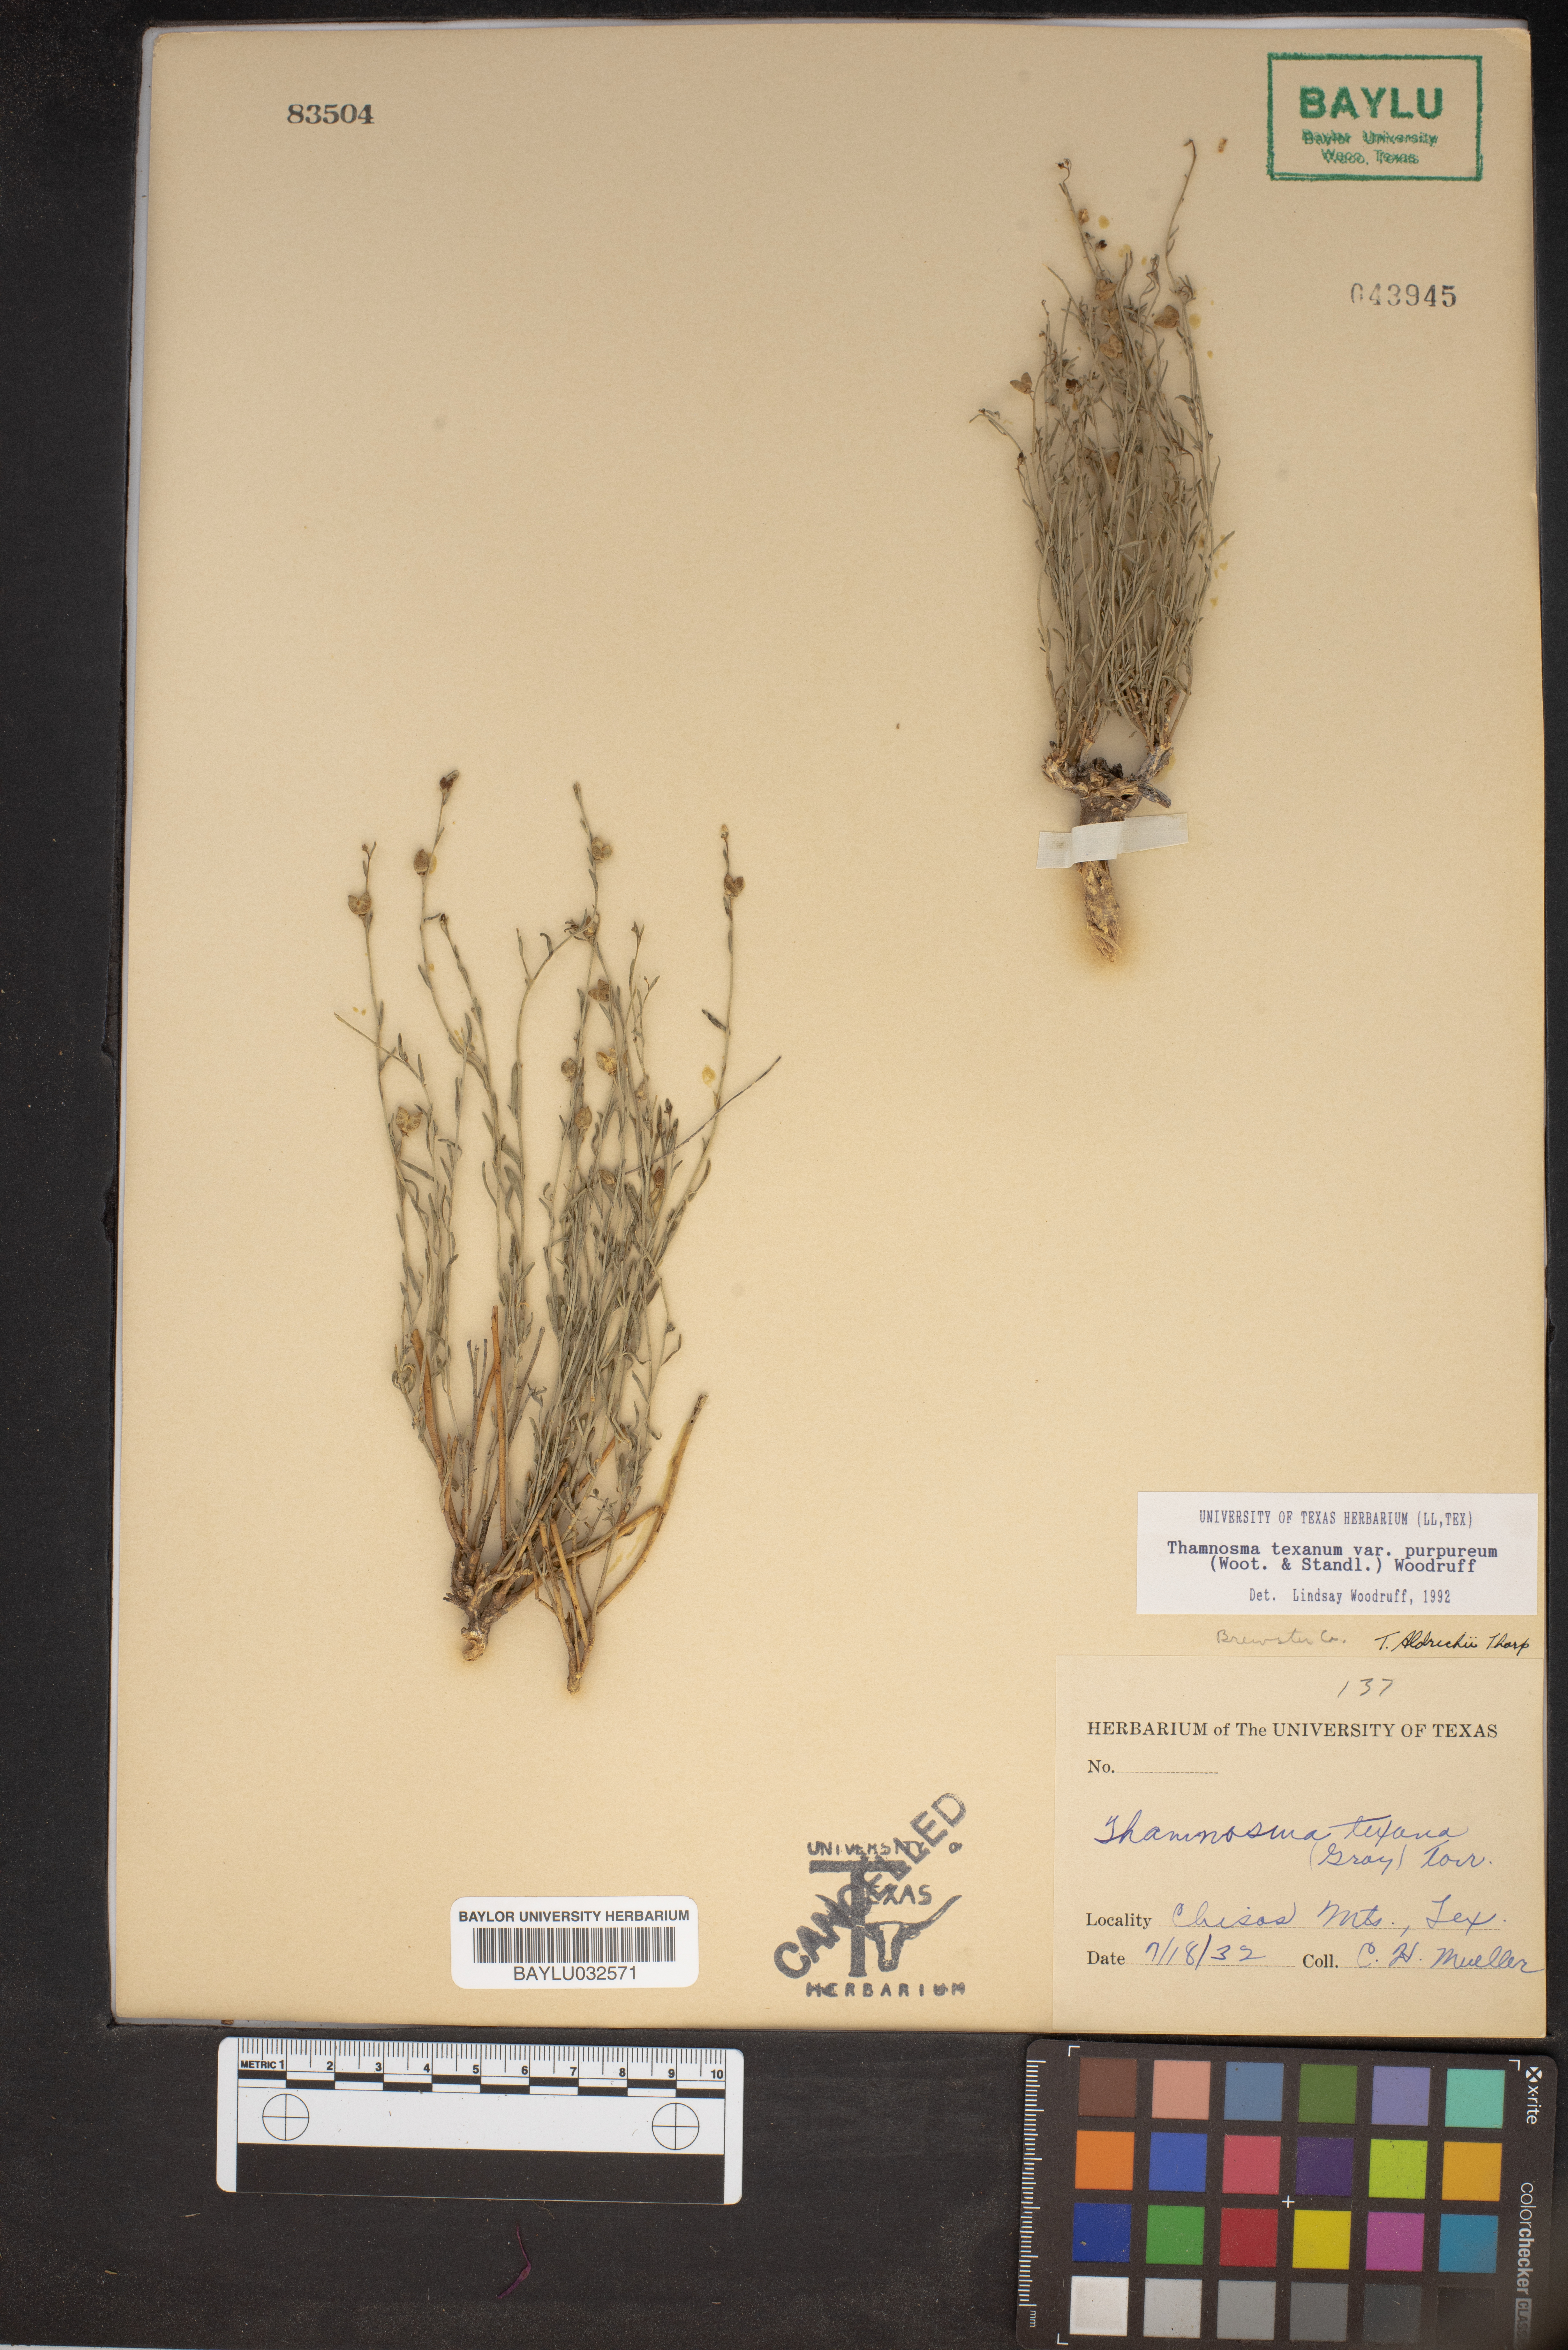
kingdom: Plantae
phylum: Tracheophyta
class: Magnoliopsida
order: Sapindales
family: Rutaceae
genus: Thamnosma
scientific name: Thamnosma texana
